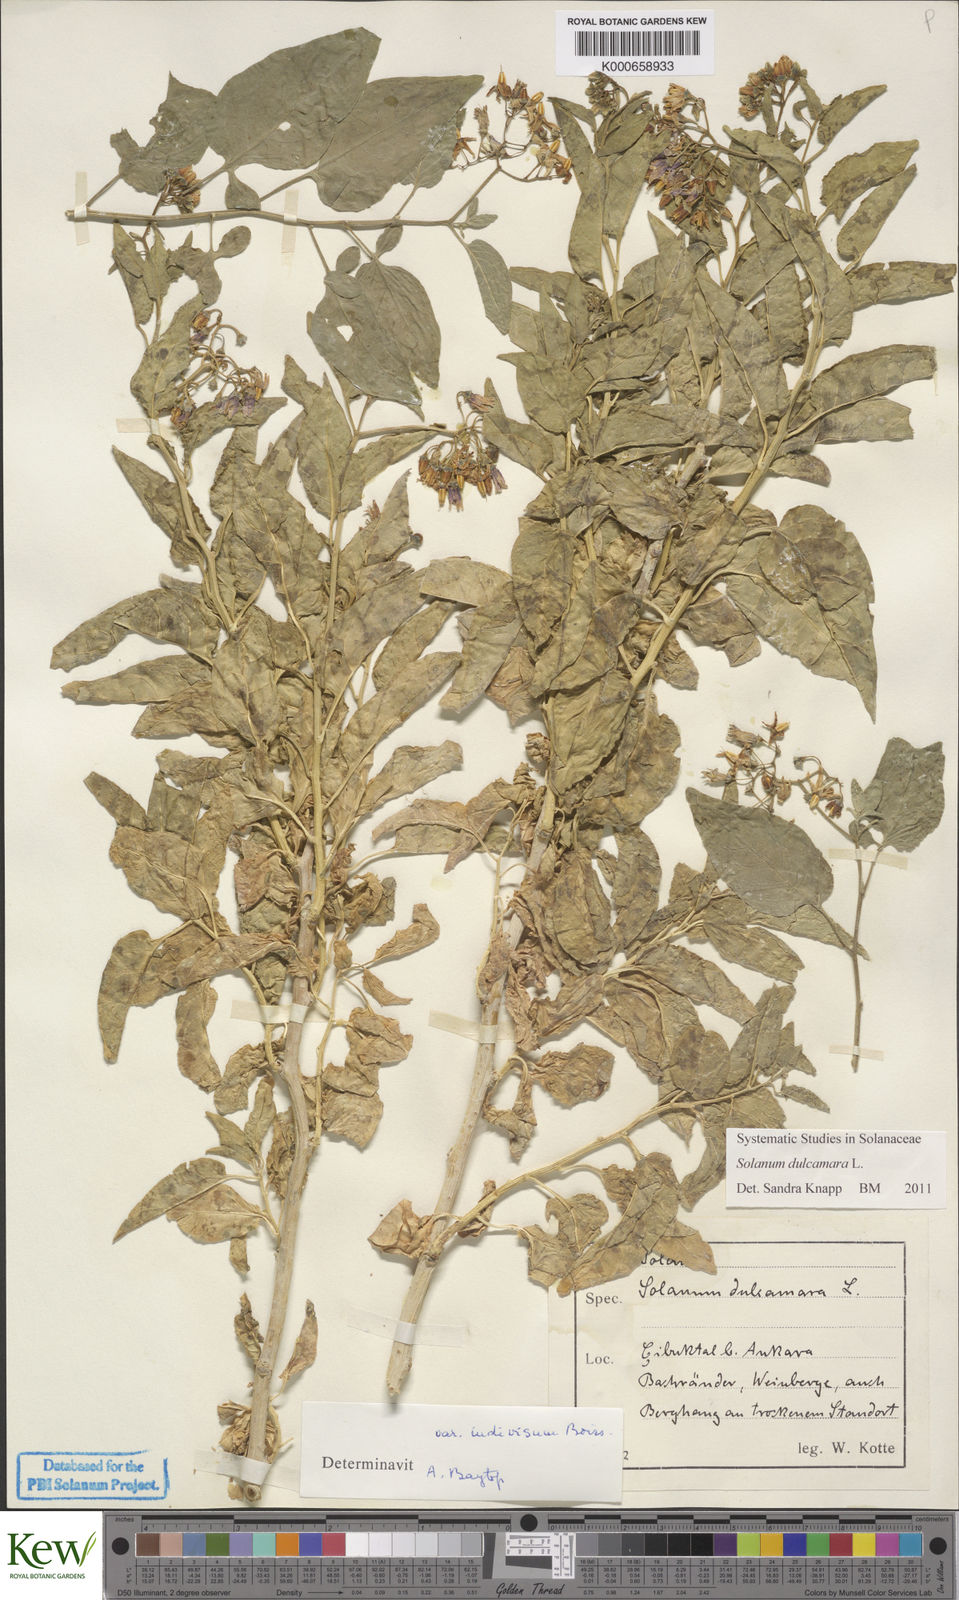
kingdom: Plantae
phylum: Tracheophyta
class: Magnoliopsida
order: Solanales
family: Solanaceae
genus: Solanum
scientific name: Solanum dulcamara
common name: Climbing nightshade
